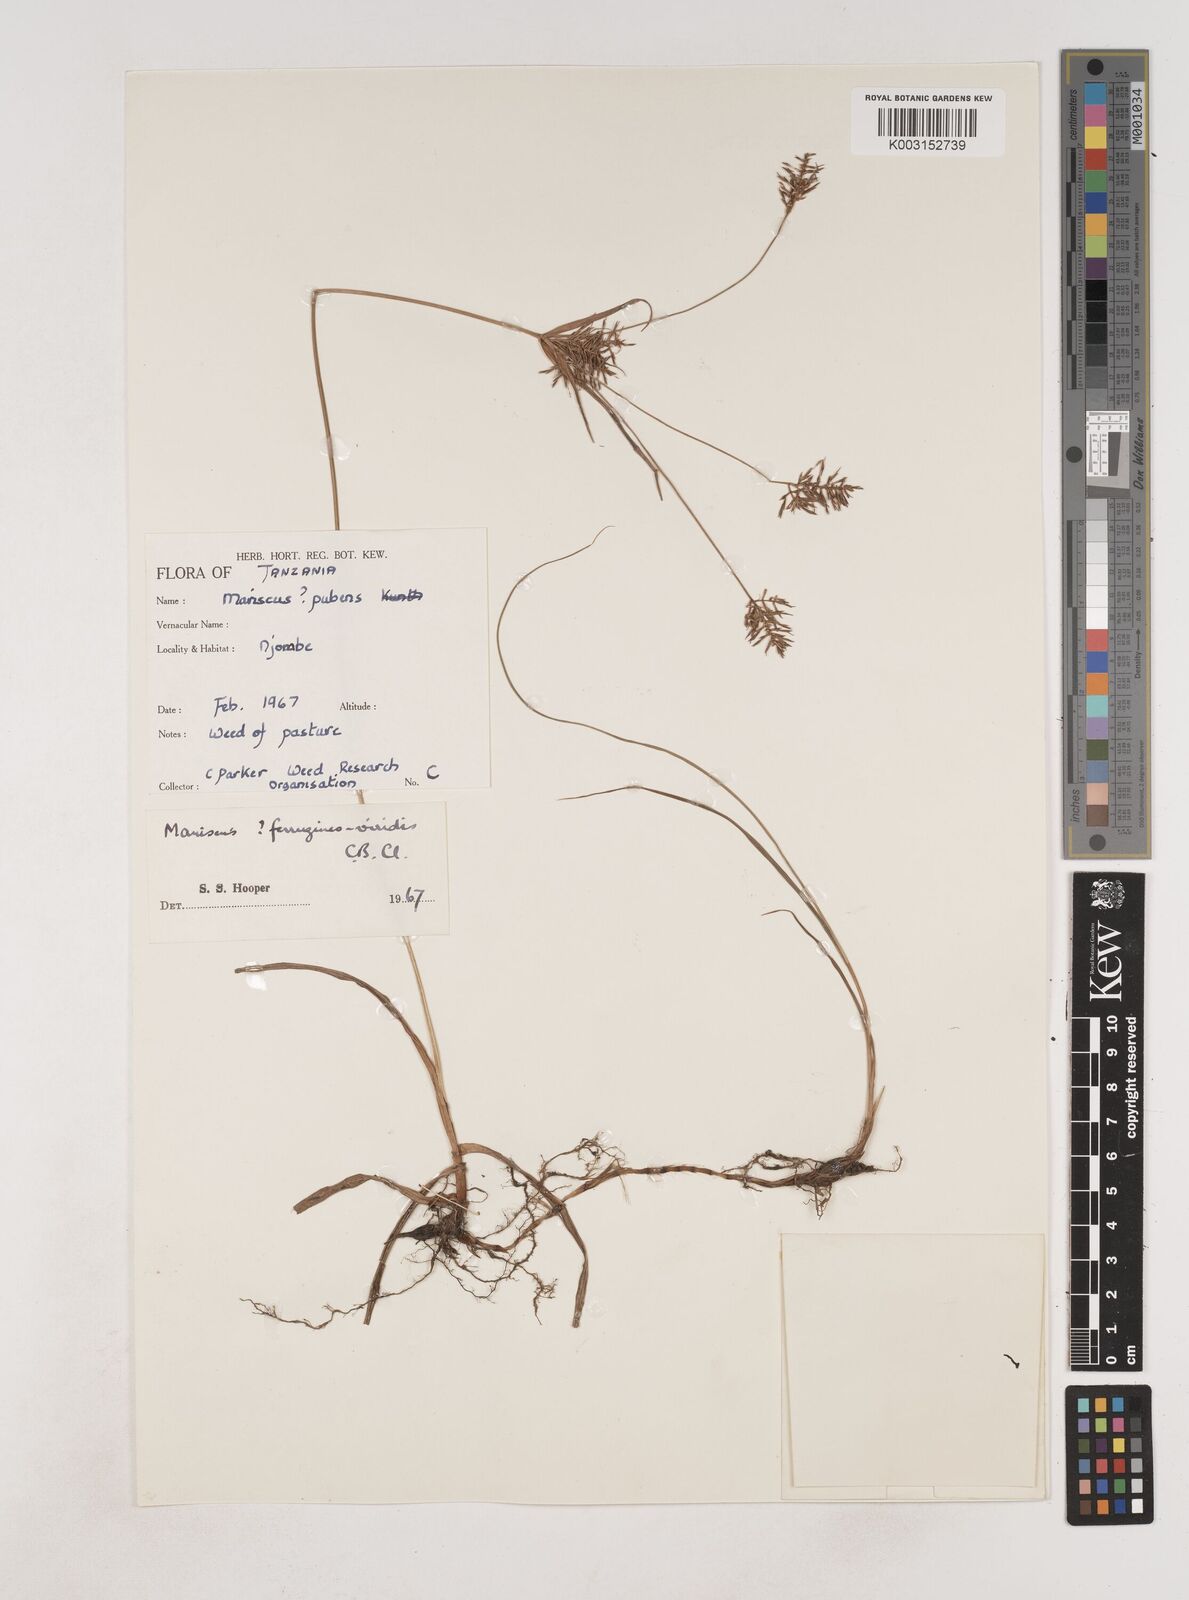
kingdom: Plantae
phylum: Tracheophyta
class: Liliopsida
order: Poales
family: Cyperaceae
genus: Cyperus
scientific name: Cyperus esculentus
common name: Yellow nutsedge
